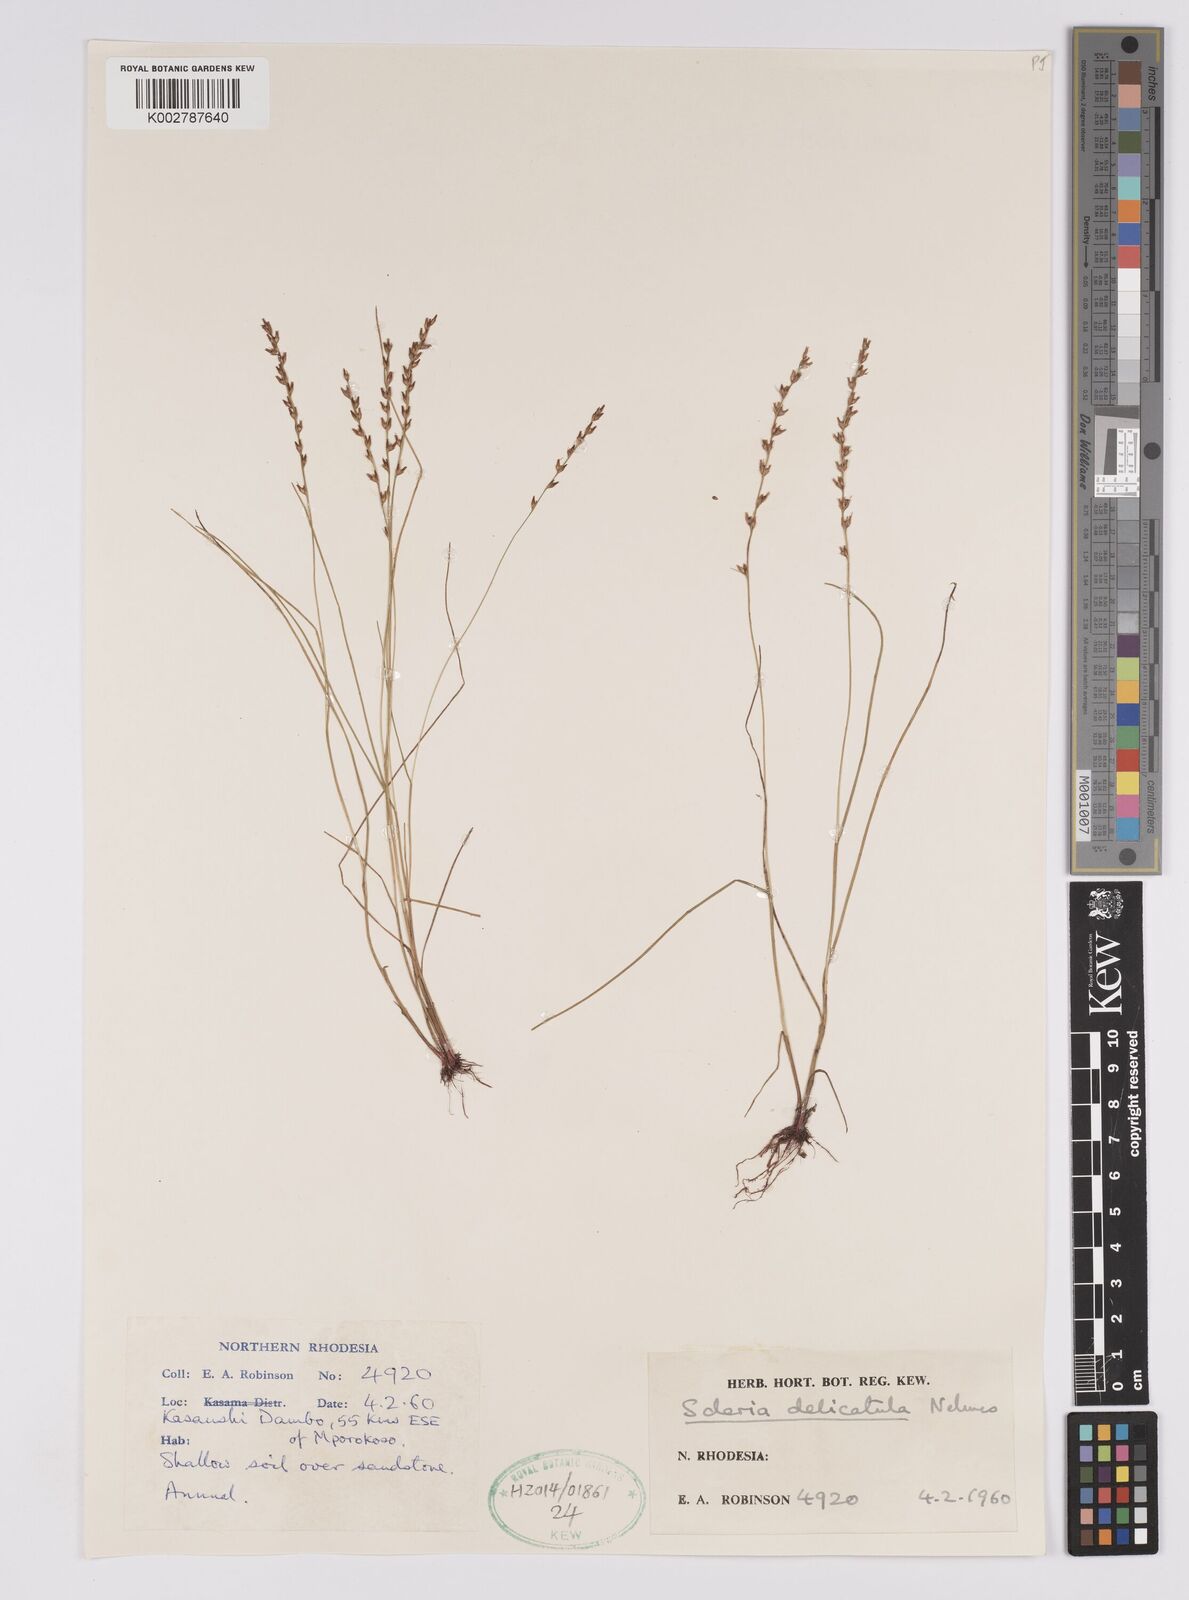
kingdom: Plantae
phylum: Tracheophyta
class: Liliopsida
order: Poales
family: Cyperaceae
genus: Scleria
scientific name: Scleria delicatula
